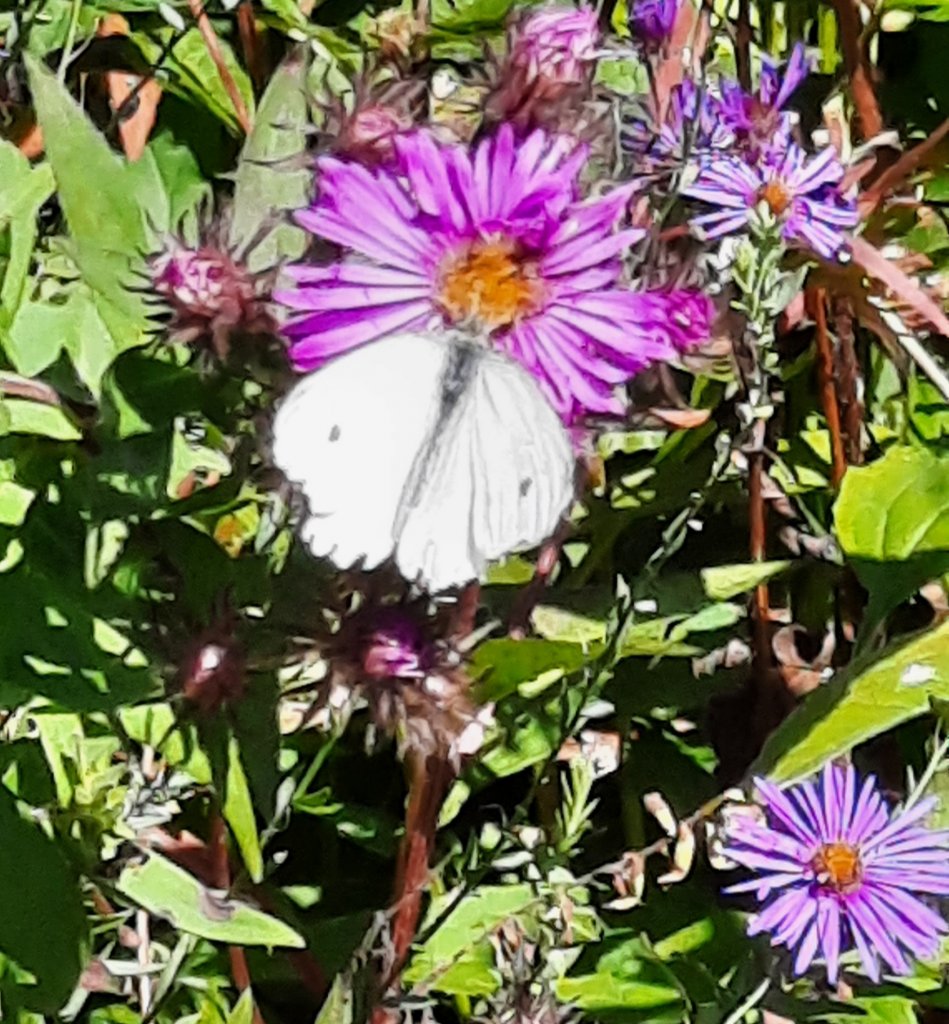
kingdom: Animalia
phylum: Arthropoda
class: Insecta
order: Lepidoptera
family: Pieridae
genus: Pieris
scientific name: Pieris rapae
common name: Cabbage White
